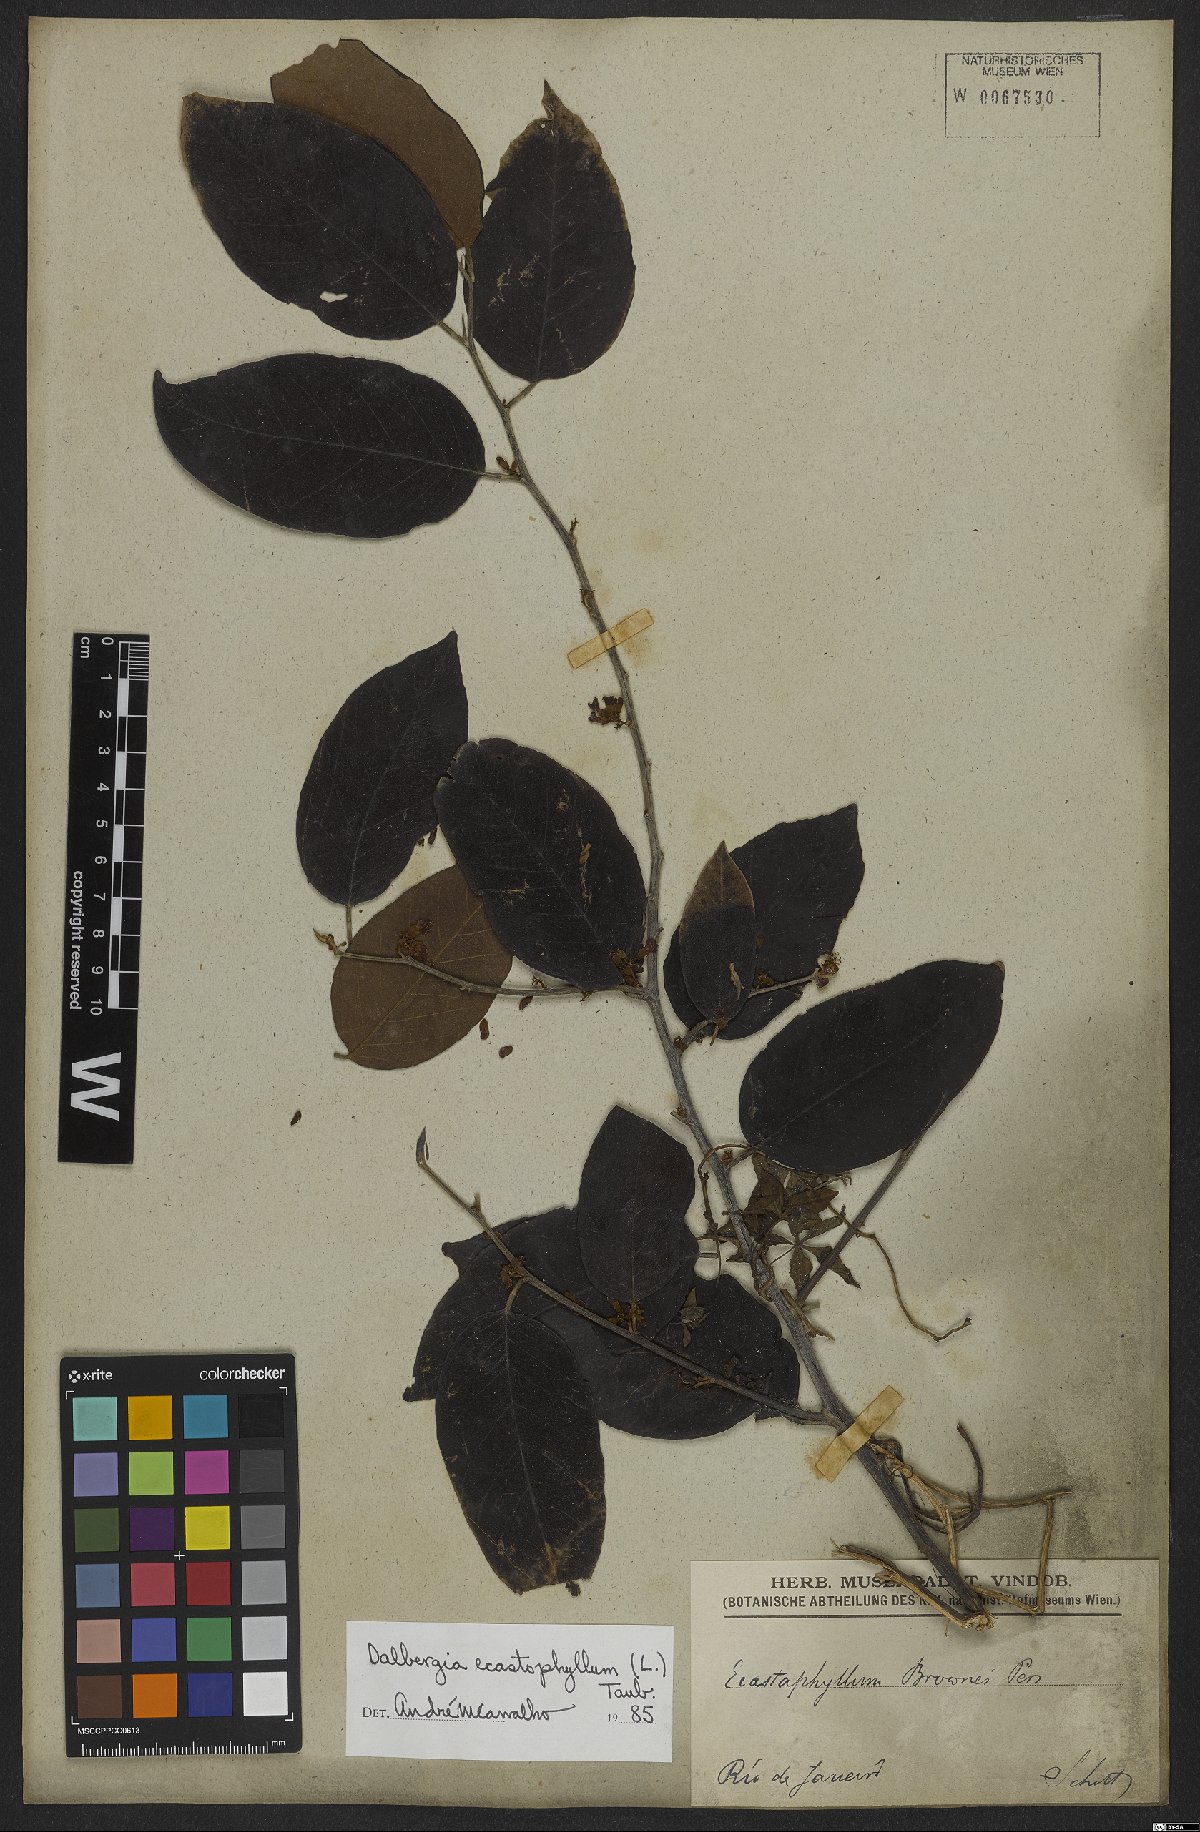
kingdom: Plantae
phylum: Tracheophyta
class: Magnoliopsida
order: Fabales
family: Fabaceae
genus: Dalbergia
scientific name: Dalbergia ecastaphyllum
